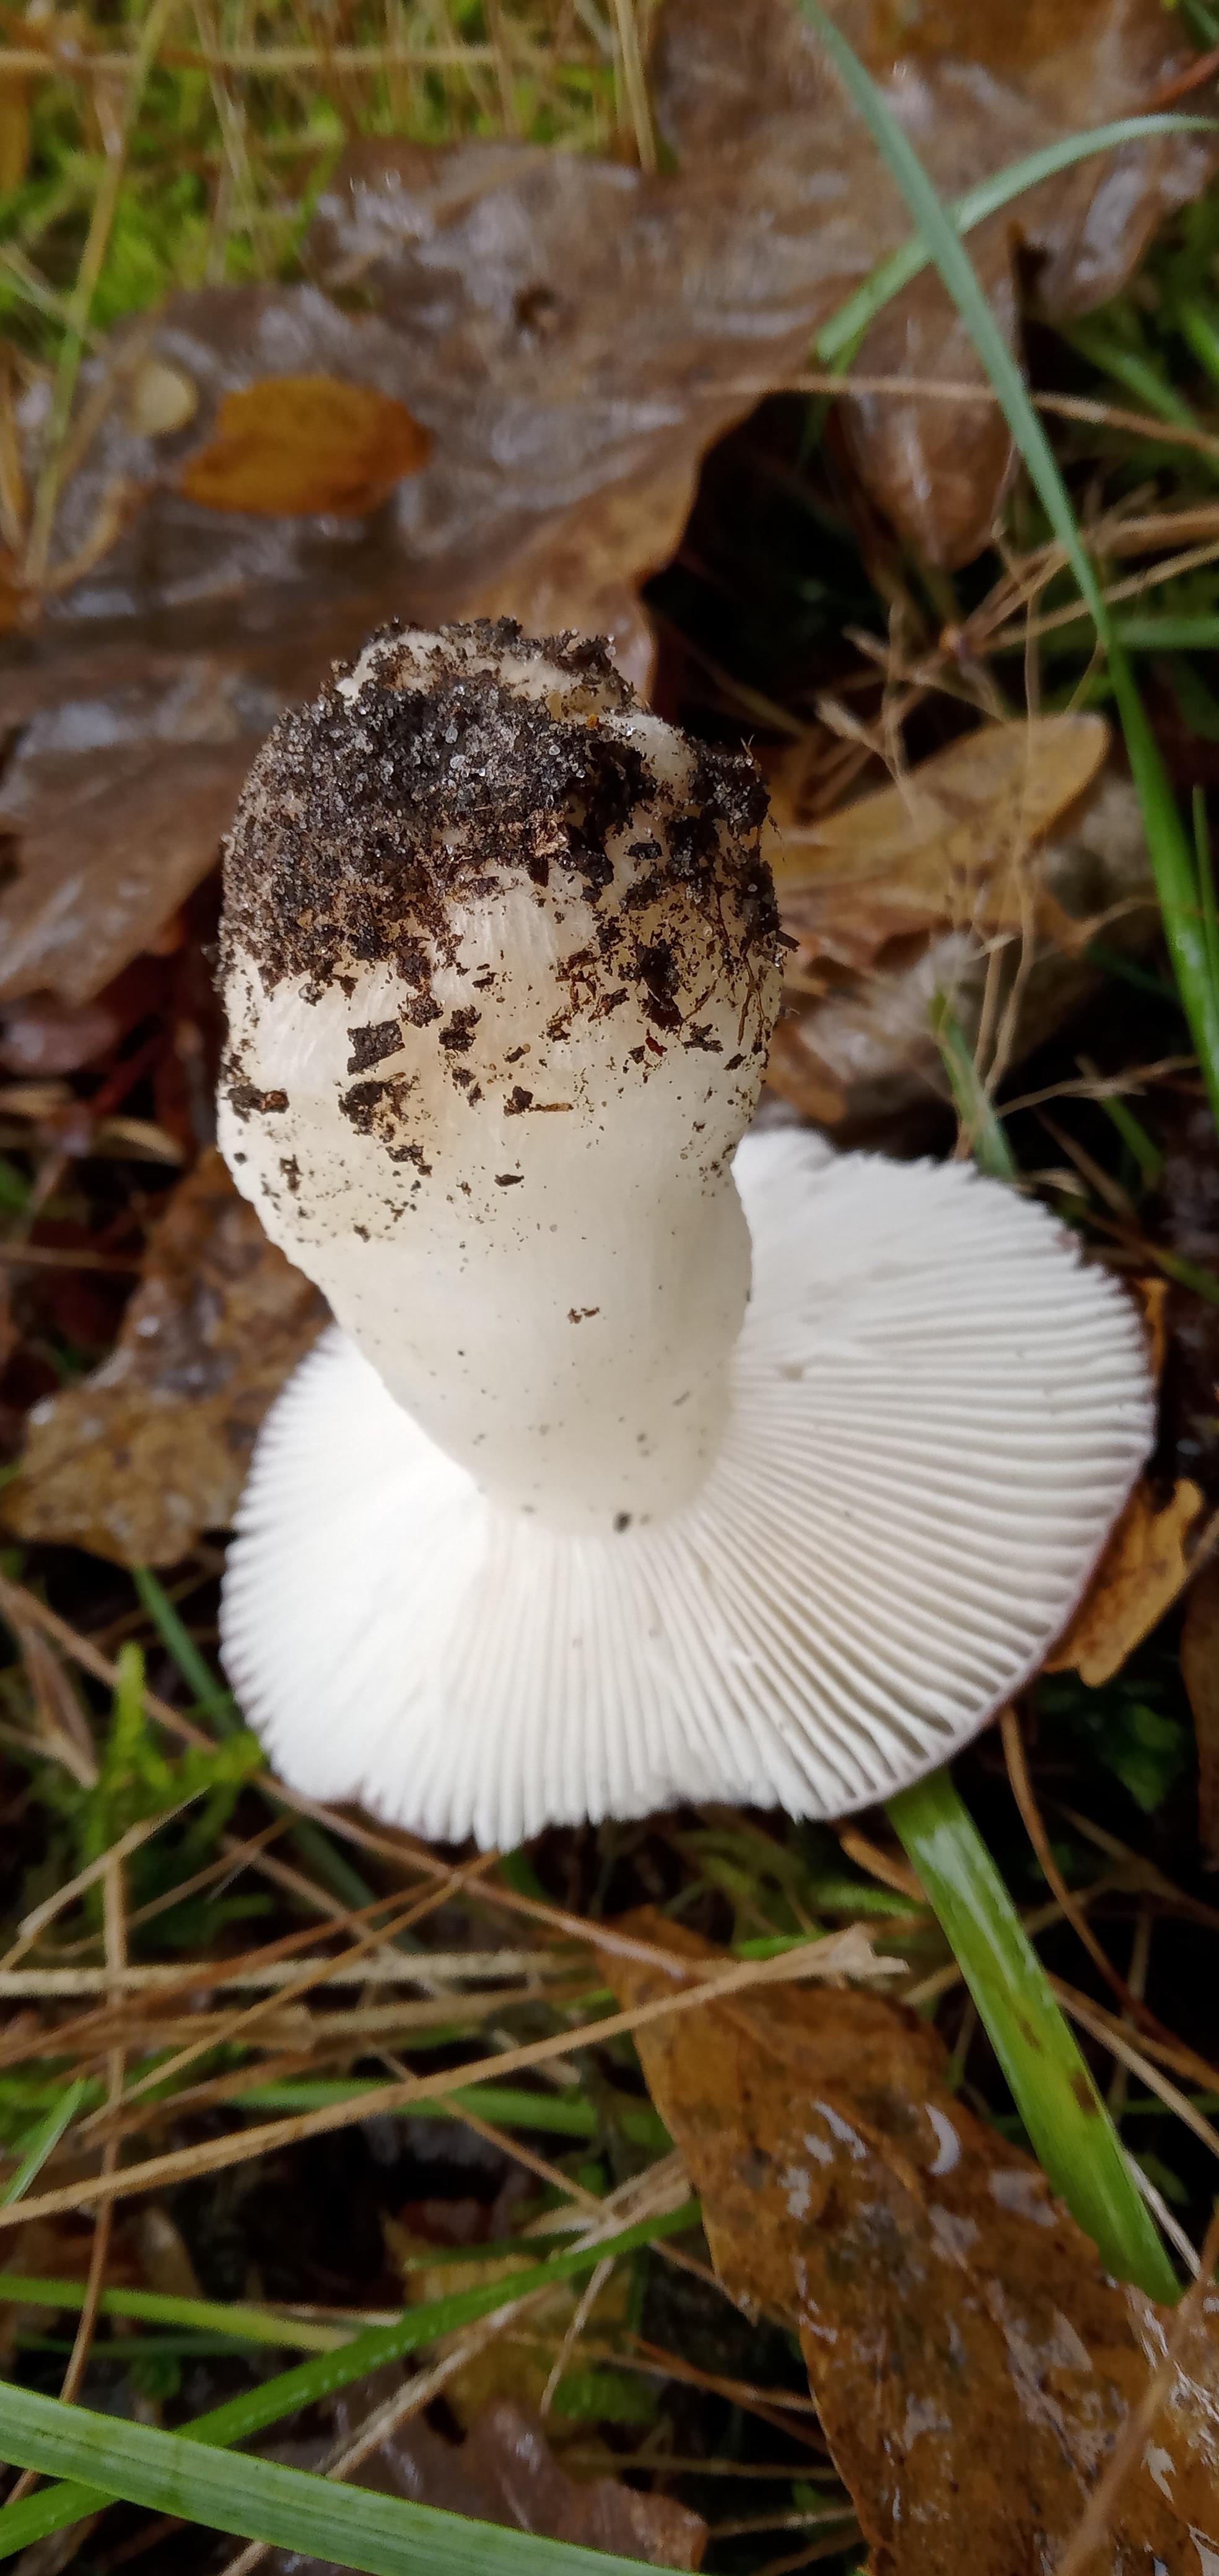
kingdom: Fungi
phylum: Basidiomycota
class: Agaricomycetes
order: Russulales
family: Russulaceae
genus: Russula
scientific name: Russula
